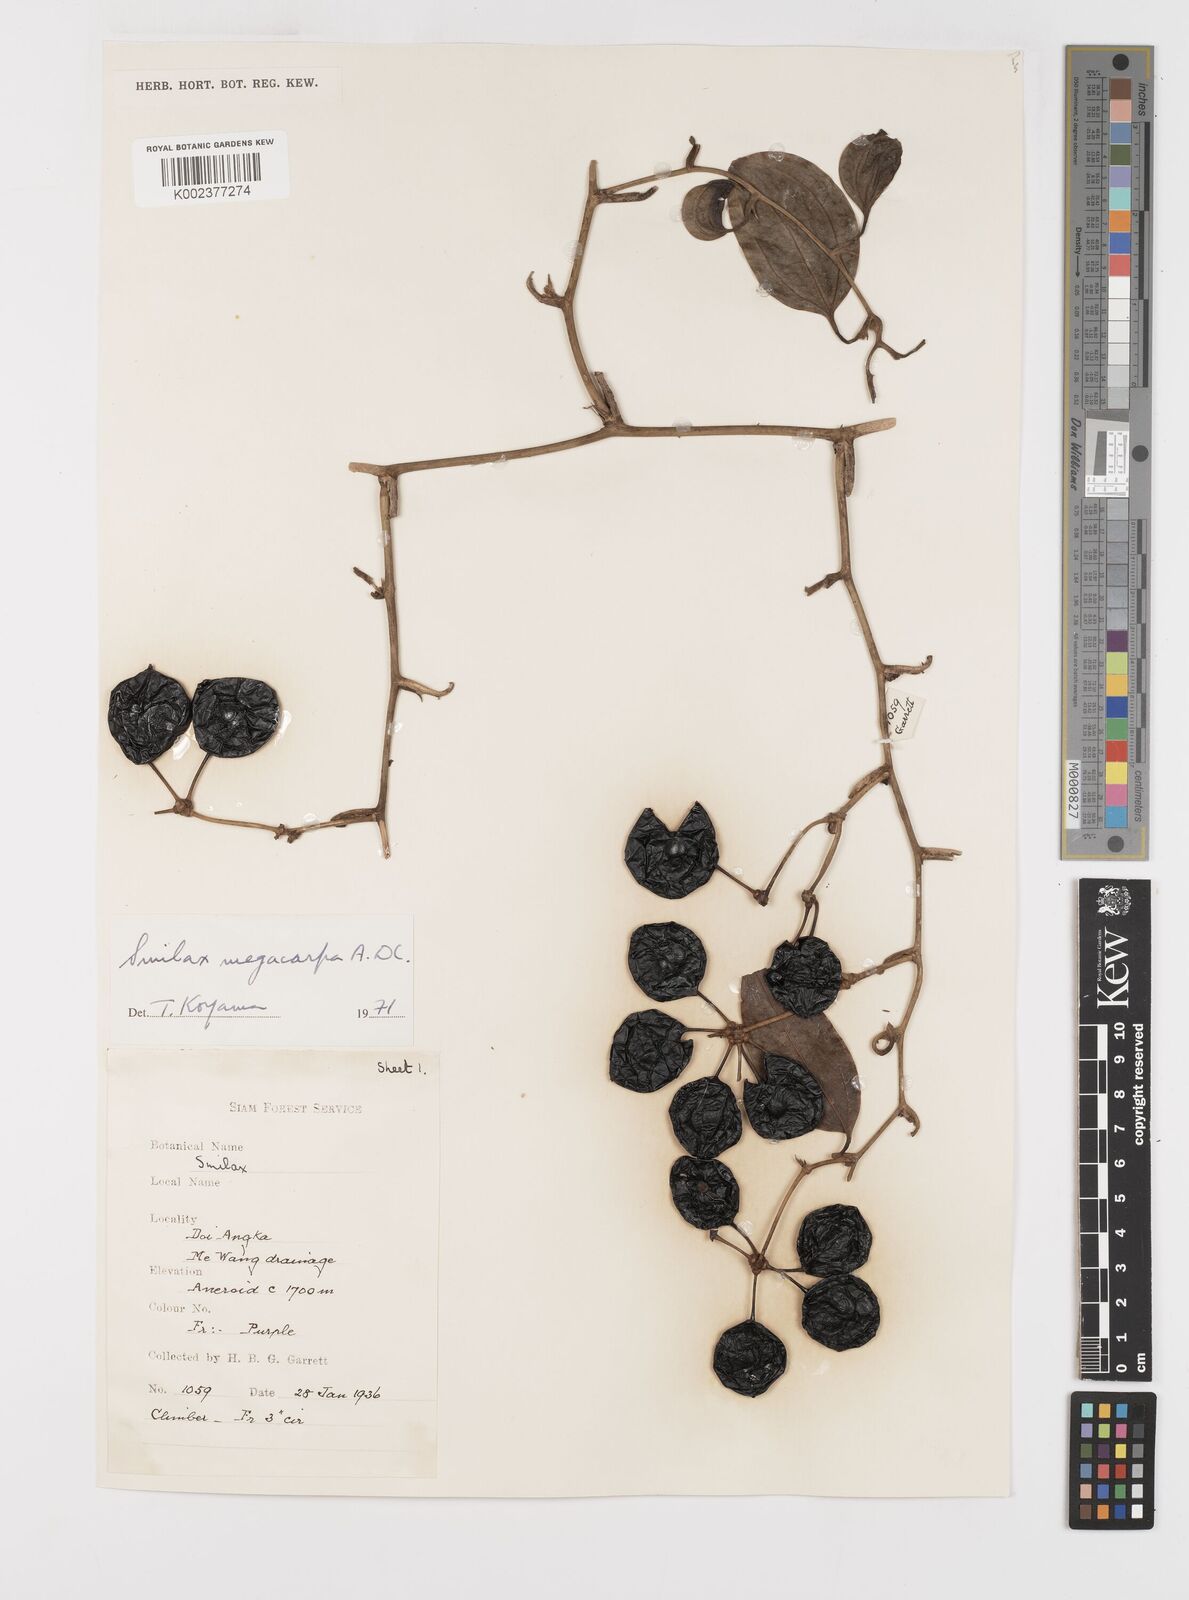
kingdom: Plantae
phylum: Tracheophyta
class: Liliopsida
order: Liliales
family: Smilacaceae
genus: Smilax
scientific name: Smilax megacarpa
